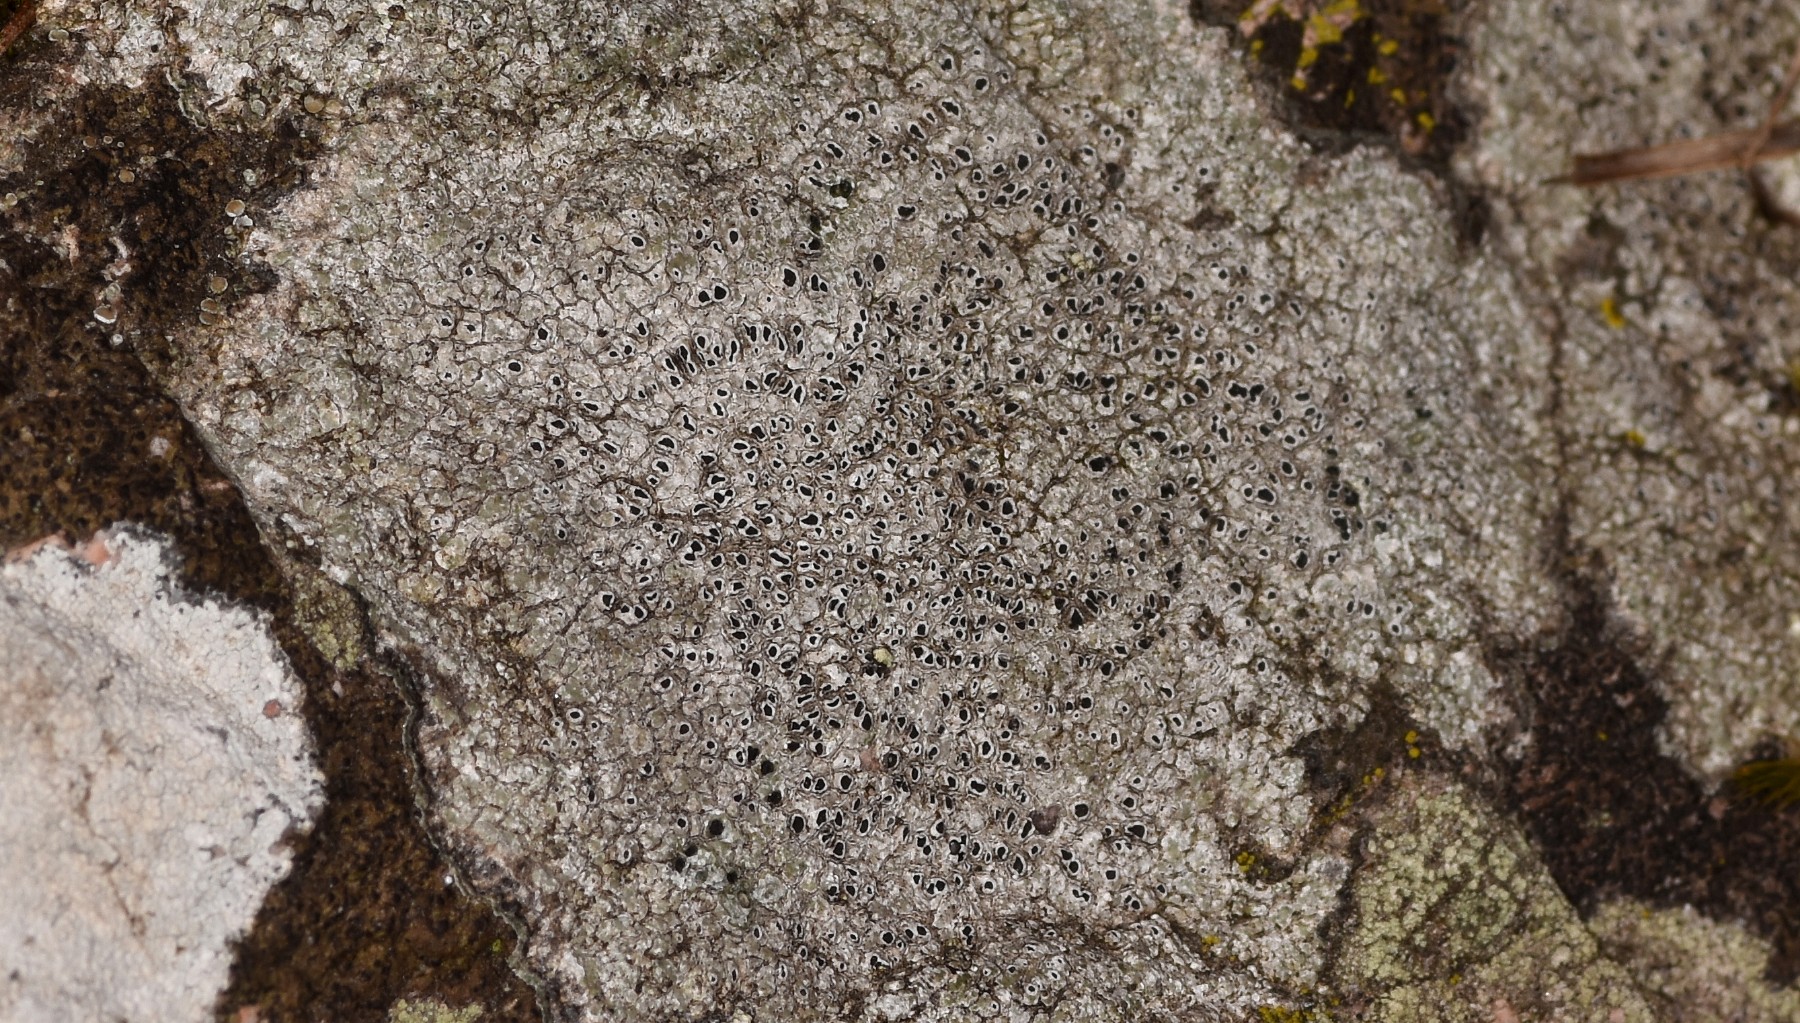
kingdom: Fungi
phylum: Ascomycota
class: Lecanoromycetes
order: Pertusariales
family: Megasporaceae
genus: Circinaria
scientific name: Circinaria caesiocinerea
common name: fuglestens-hulskivelav
